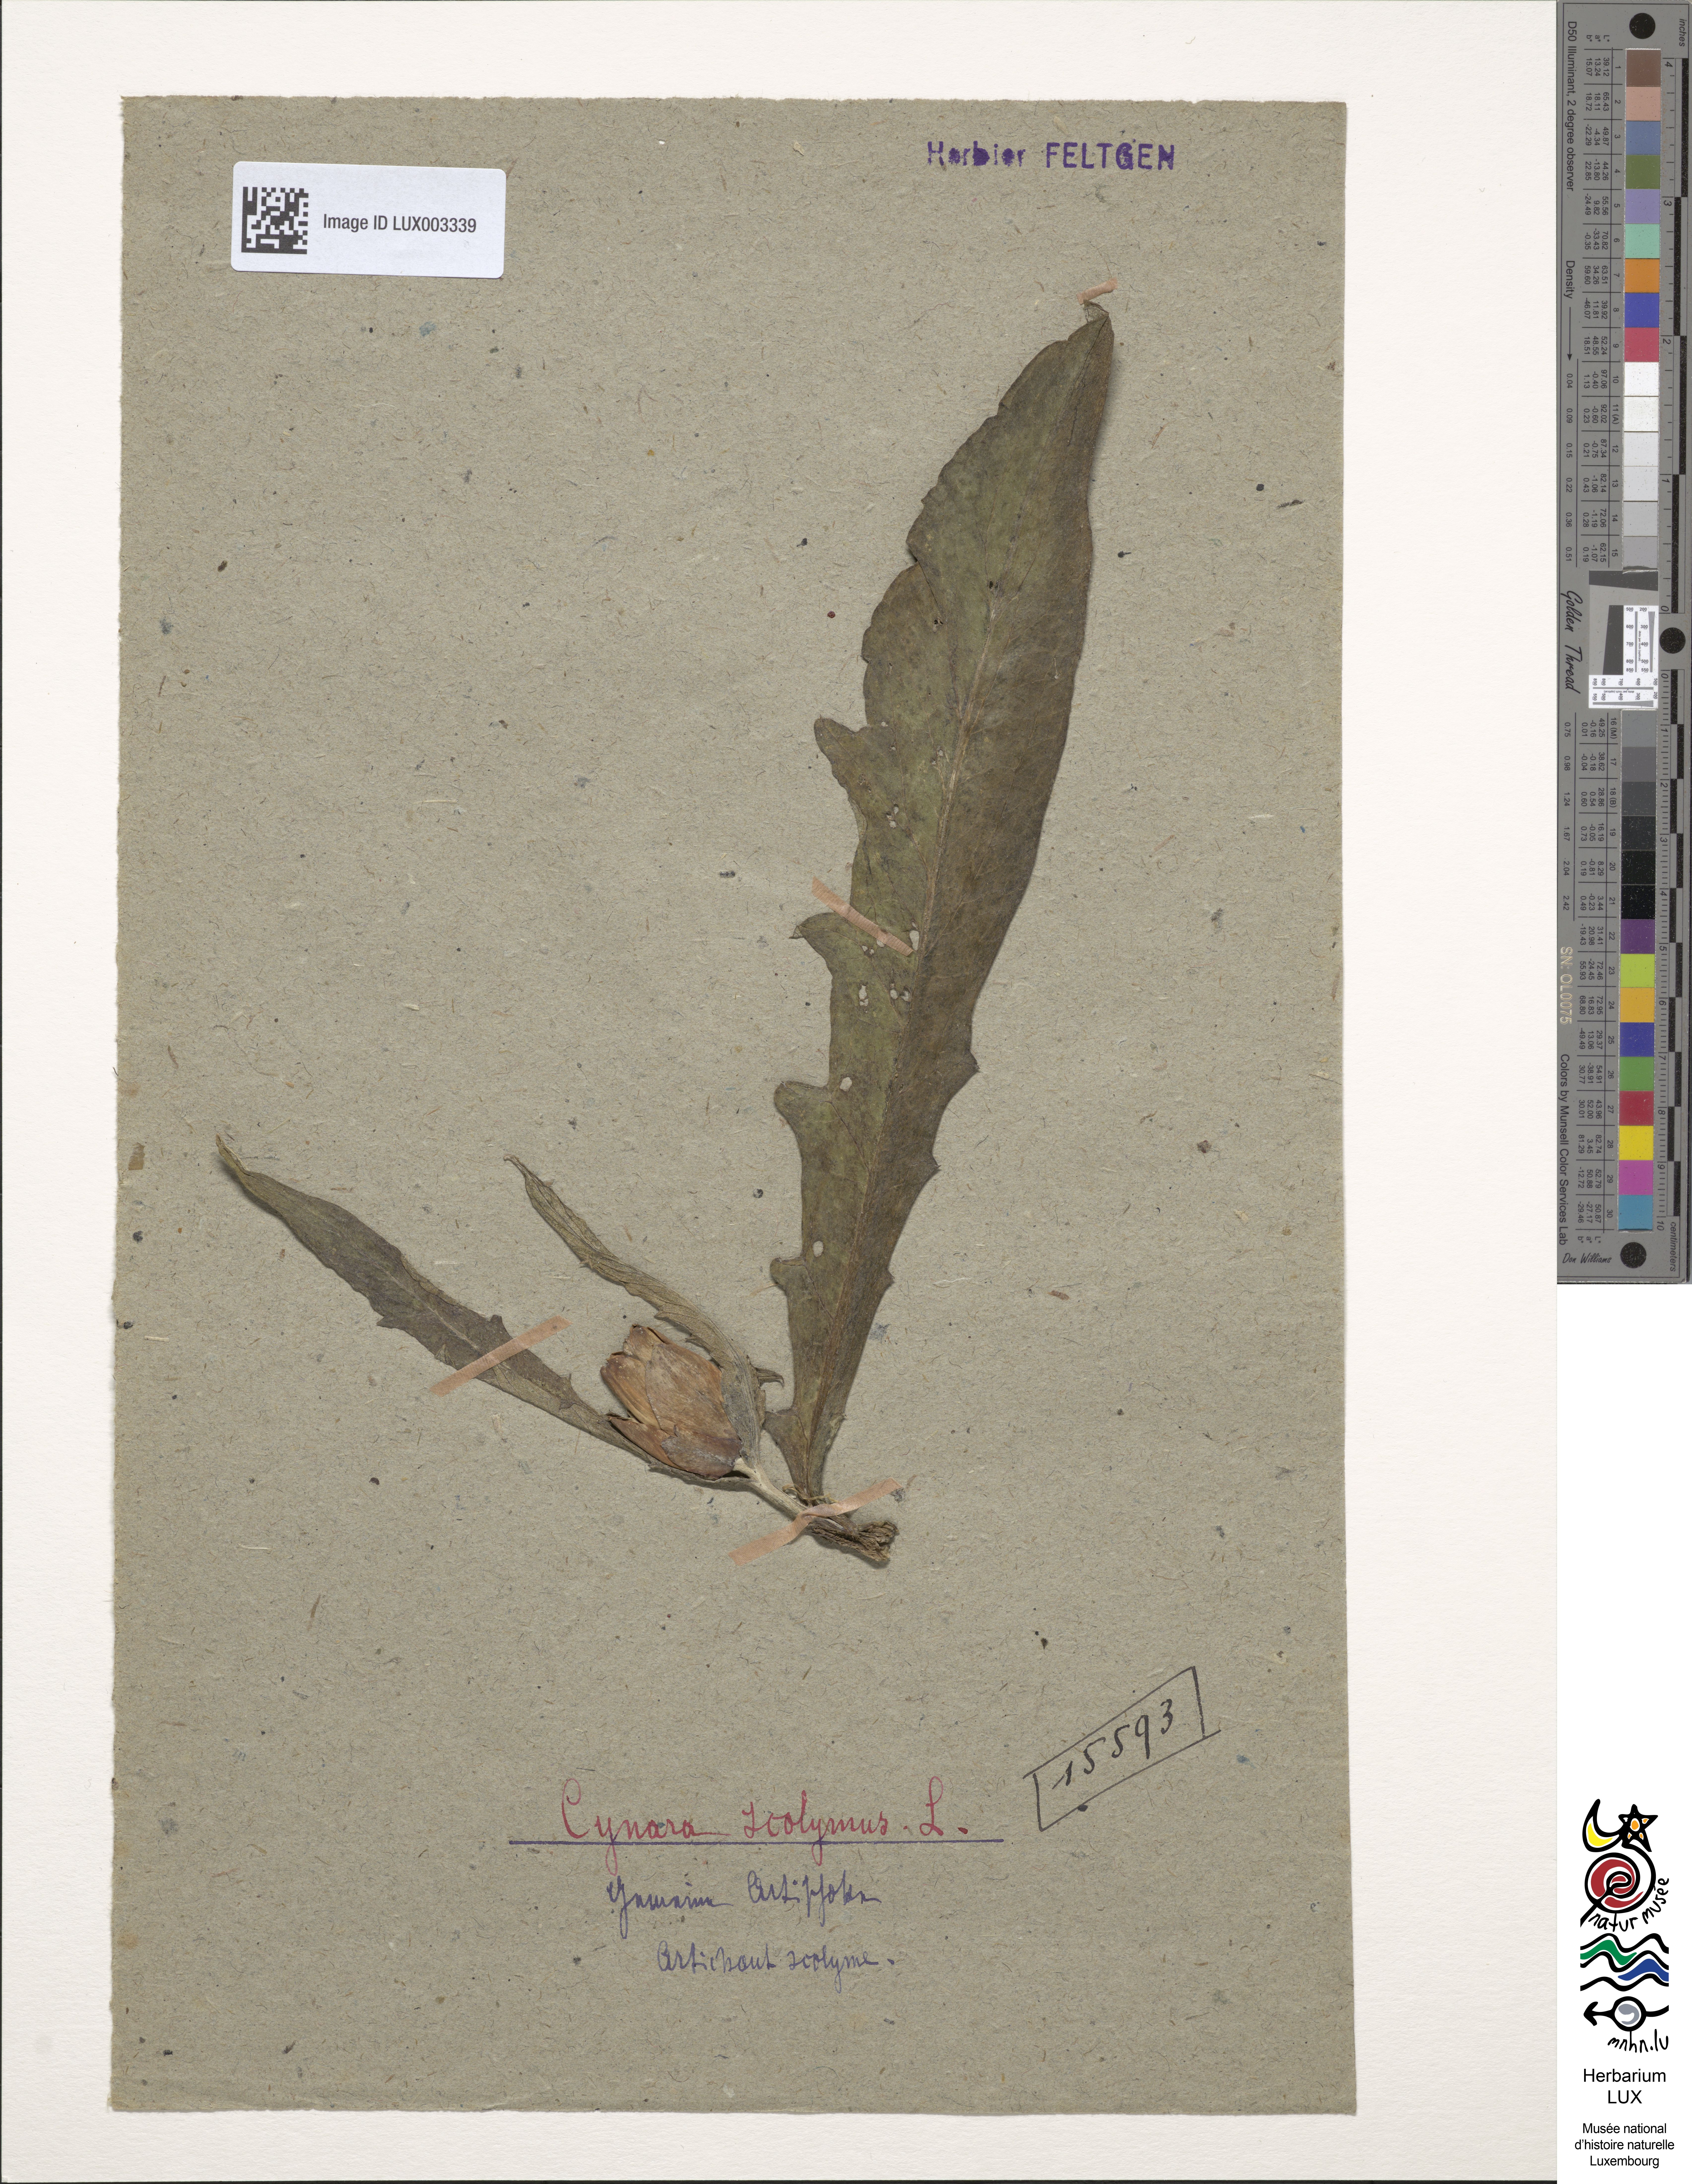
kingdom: Plantae
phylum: Tracheophyta
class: Magnoliopsida
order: Asterales
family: Asteraceae
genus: Cynara
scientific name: Cynara scolymus
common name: Globe artichoke
